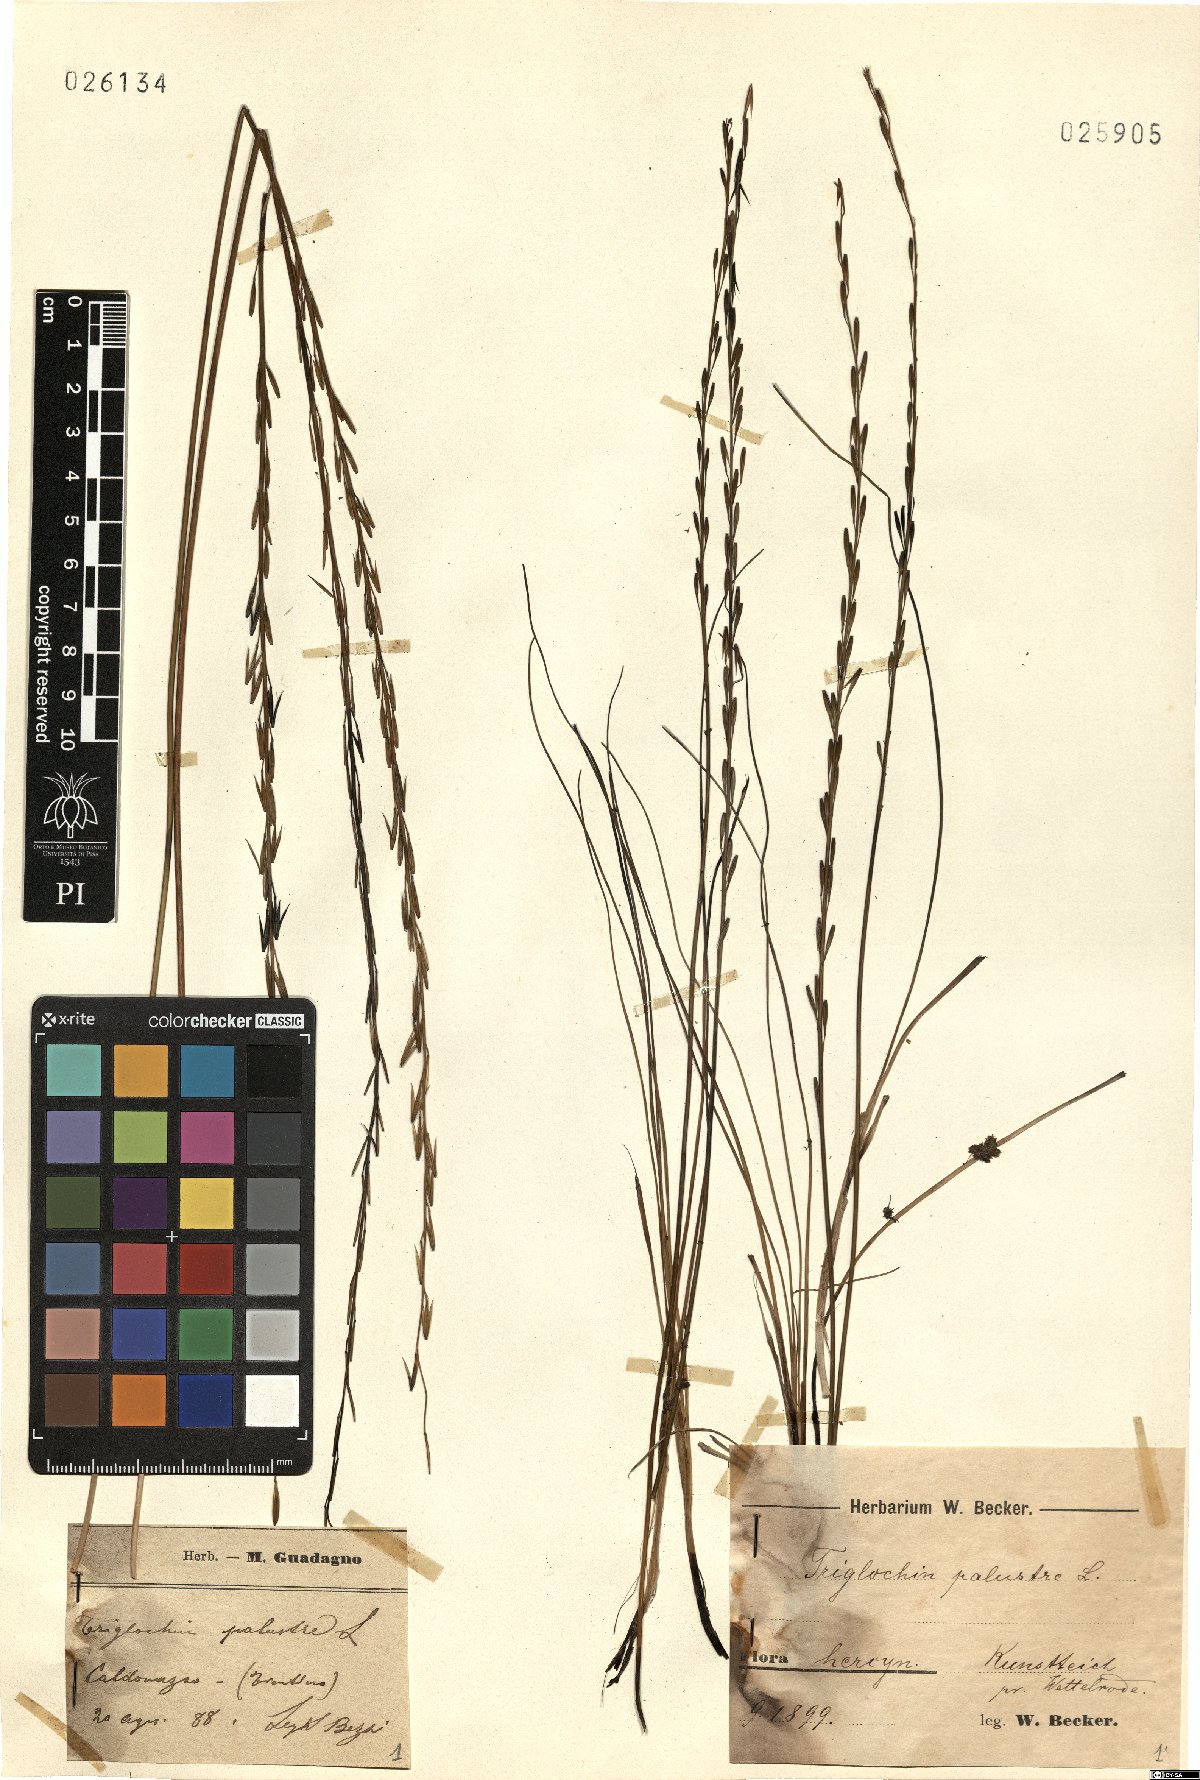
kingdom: Plantae
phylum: Tracheophyta
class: Liliopsida
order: Alismatales
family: Juncaginaceae
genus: Triglochin
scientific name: Triglochin palustris
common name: Marsh arrowgrass
